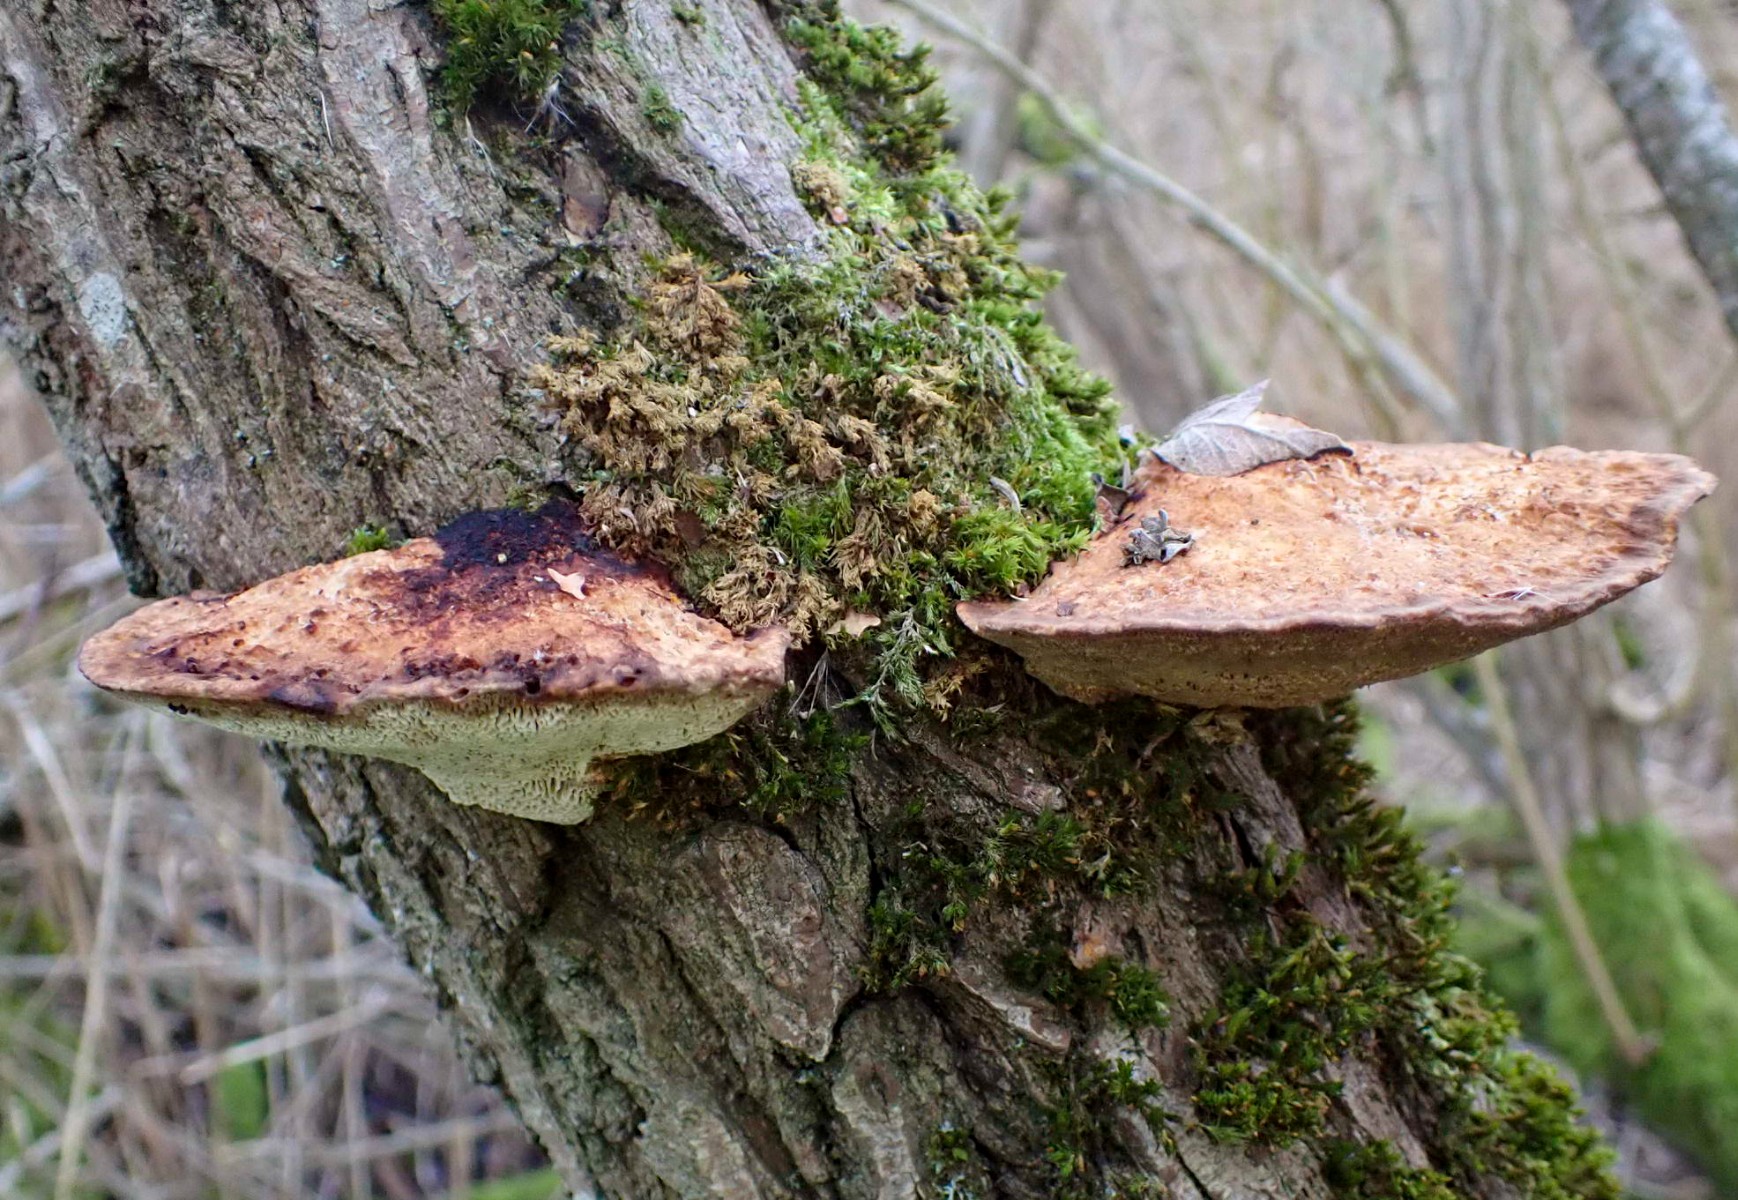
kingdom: Fungi
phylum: Basidiomycota
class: Agaricomycetes
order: Polyporales
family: Polyporaceae
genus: Daedaleopsis
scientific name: Daedaleopsis confragosa
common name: rødmende læderporesvamp
